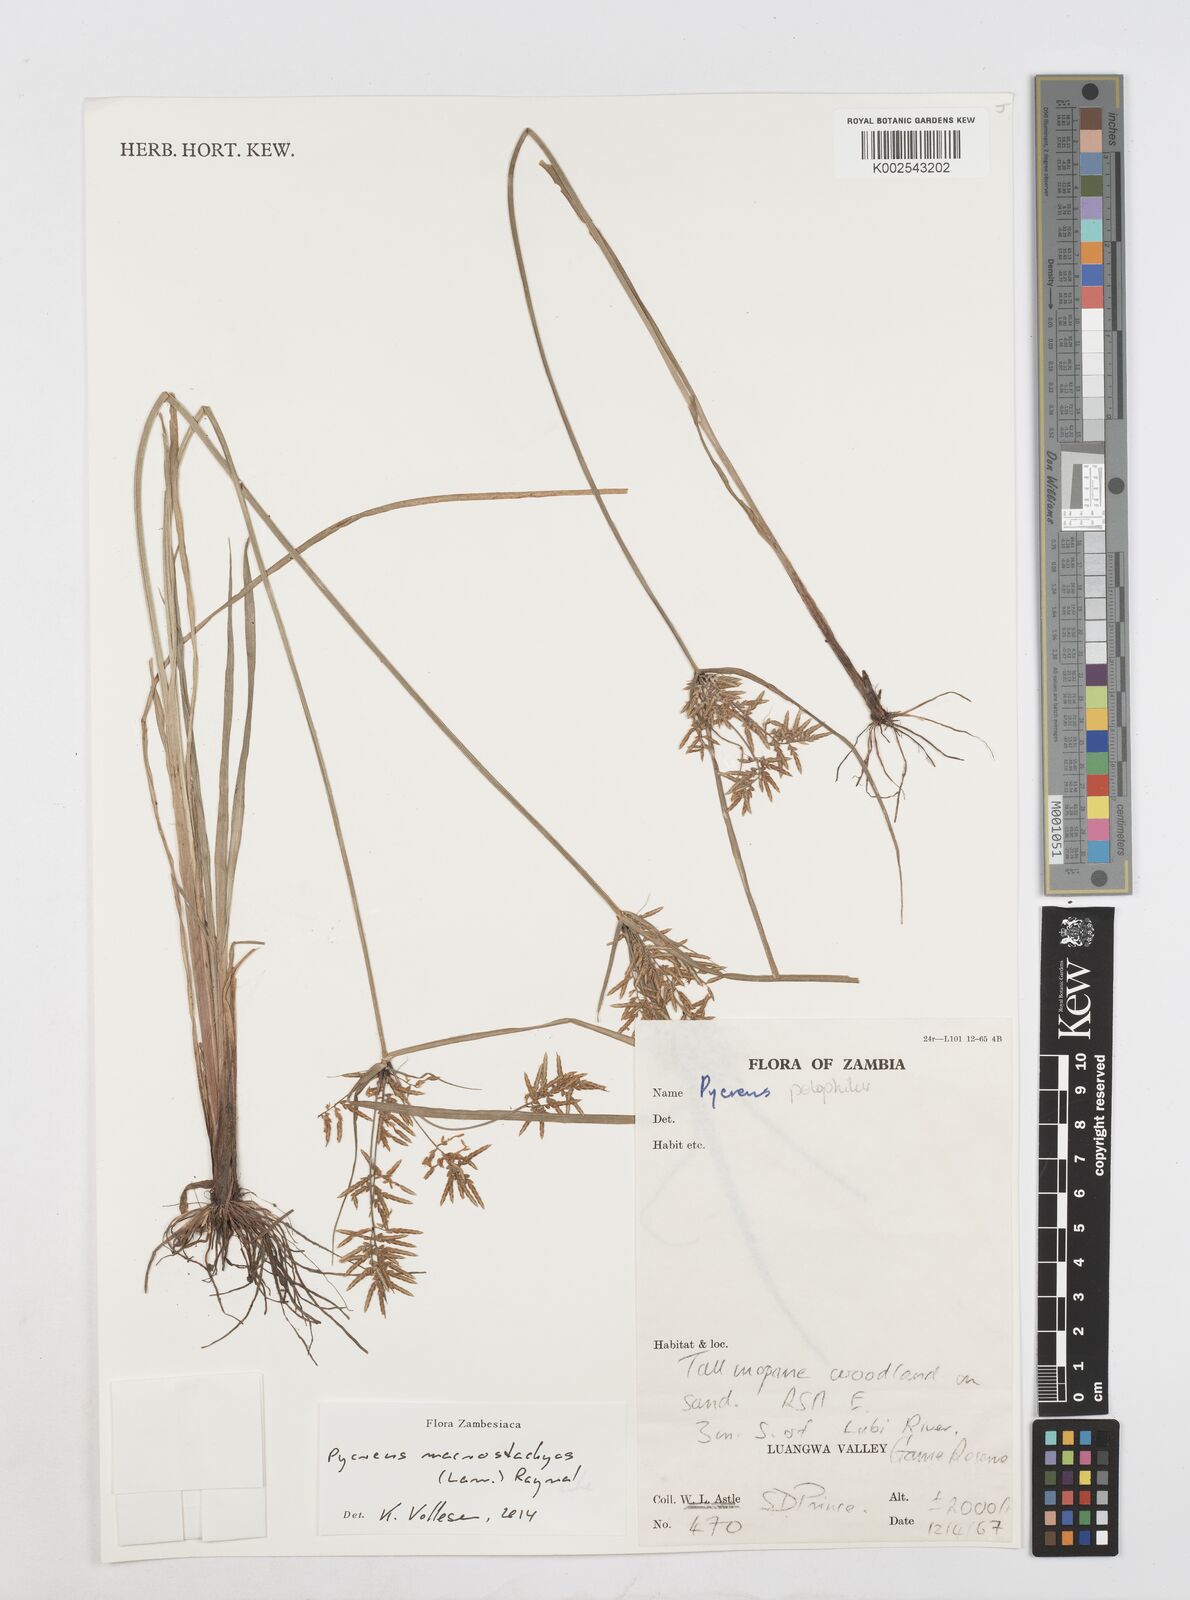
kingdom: Plantae
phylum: Tracheophyta
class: Liliopsida
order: Poales
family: Cyperaceae
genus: Cyperus
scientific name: Cyperus macrostachyos
